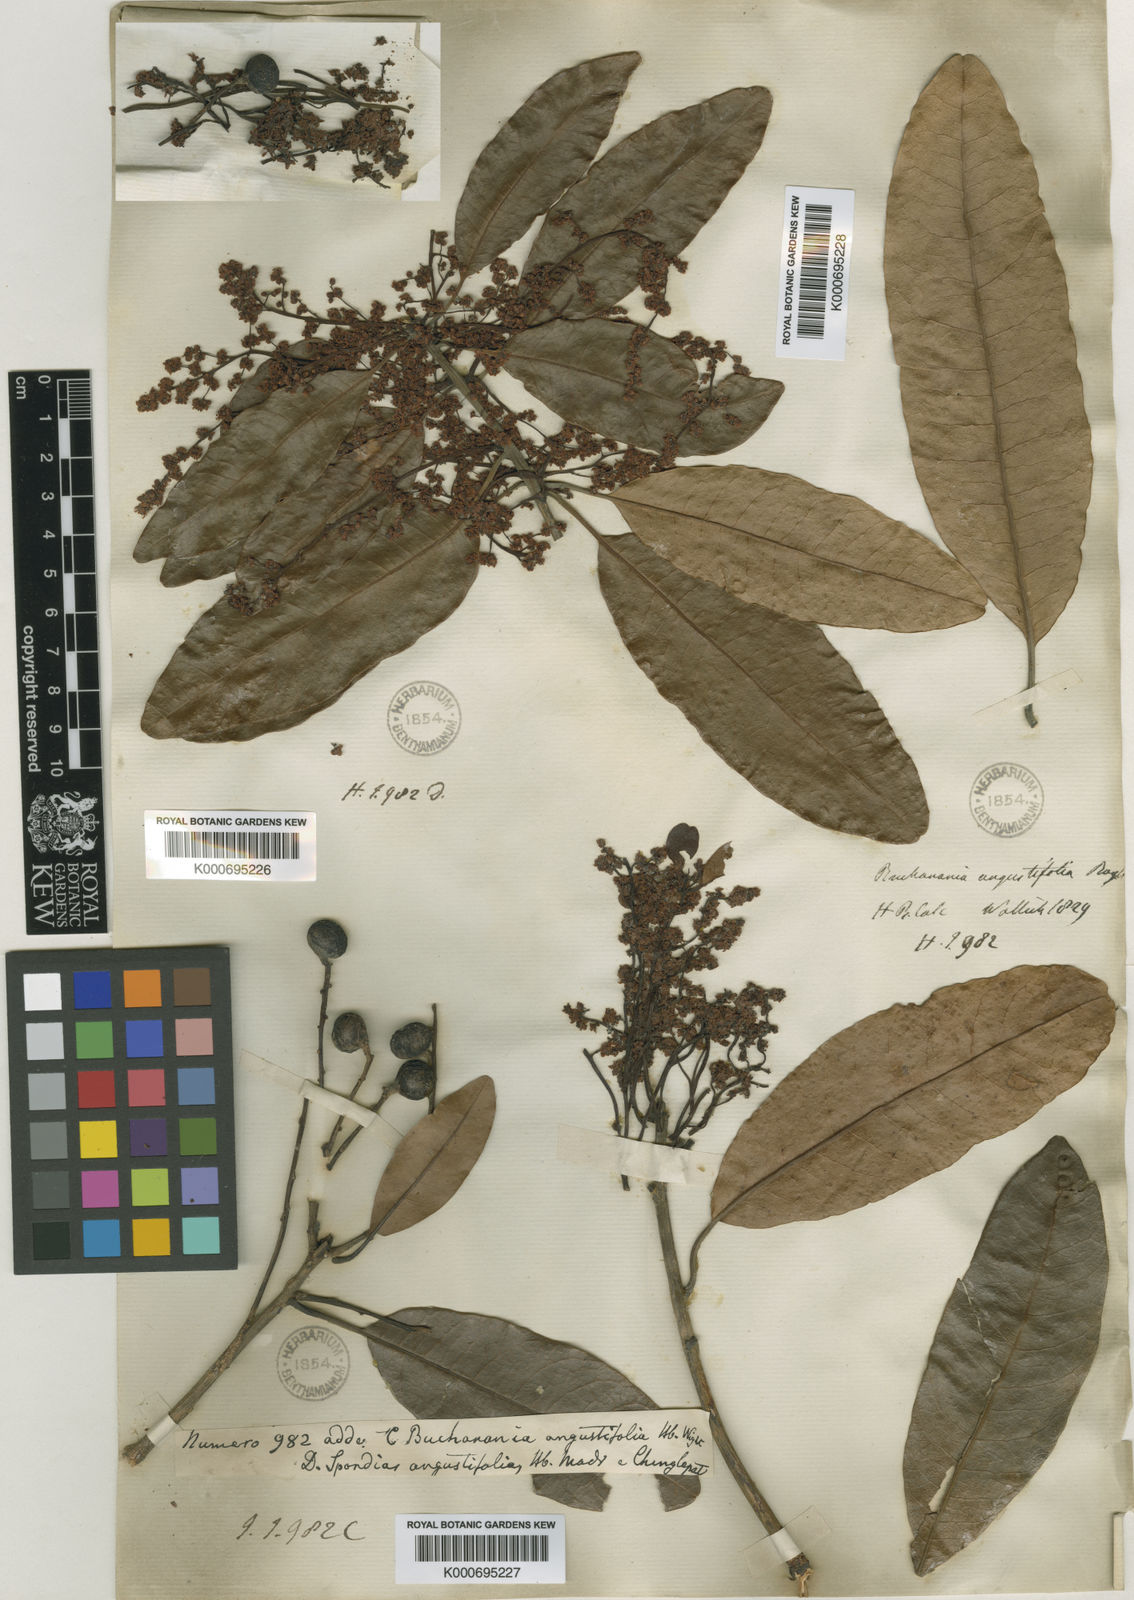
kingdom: Plantae
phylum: Tracheophyta
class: Magnoliopsida
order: Sapindales
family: Anacardiaceae
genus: Buchanania
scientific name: Buchanania axillaris
